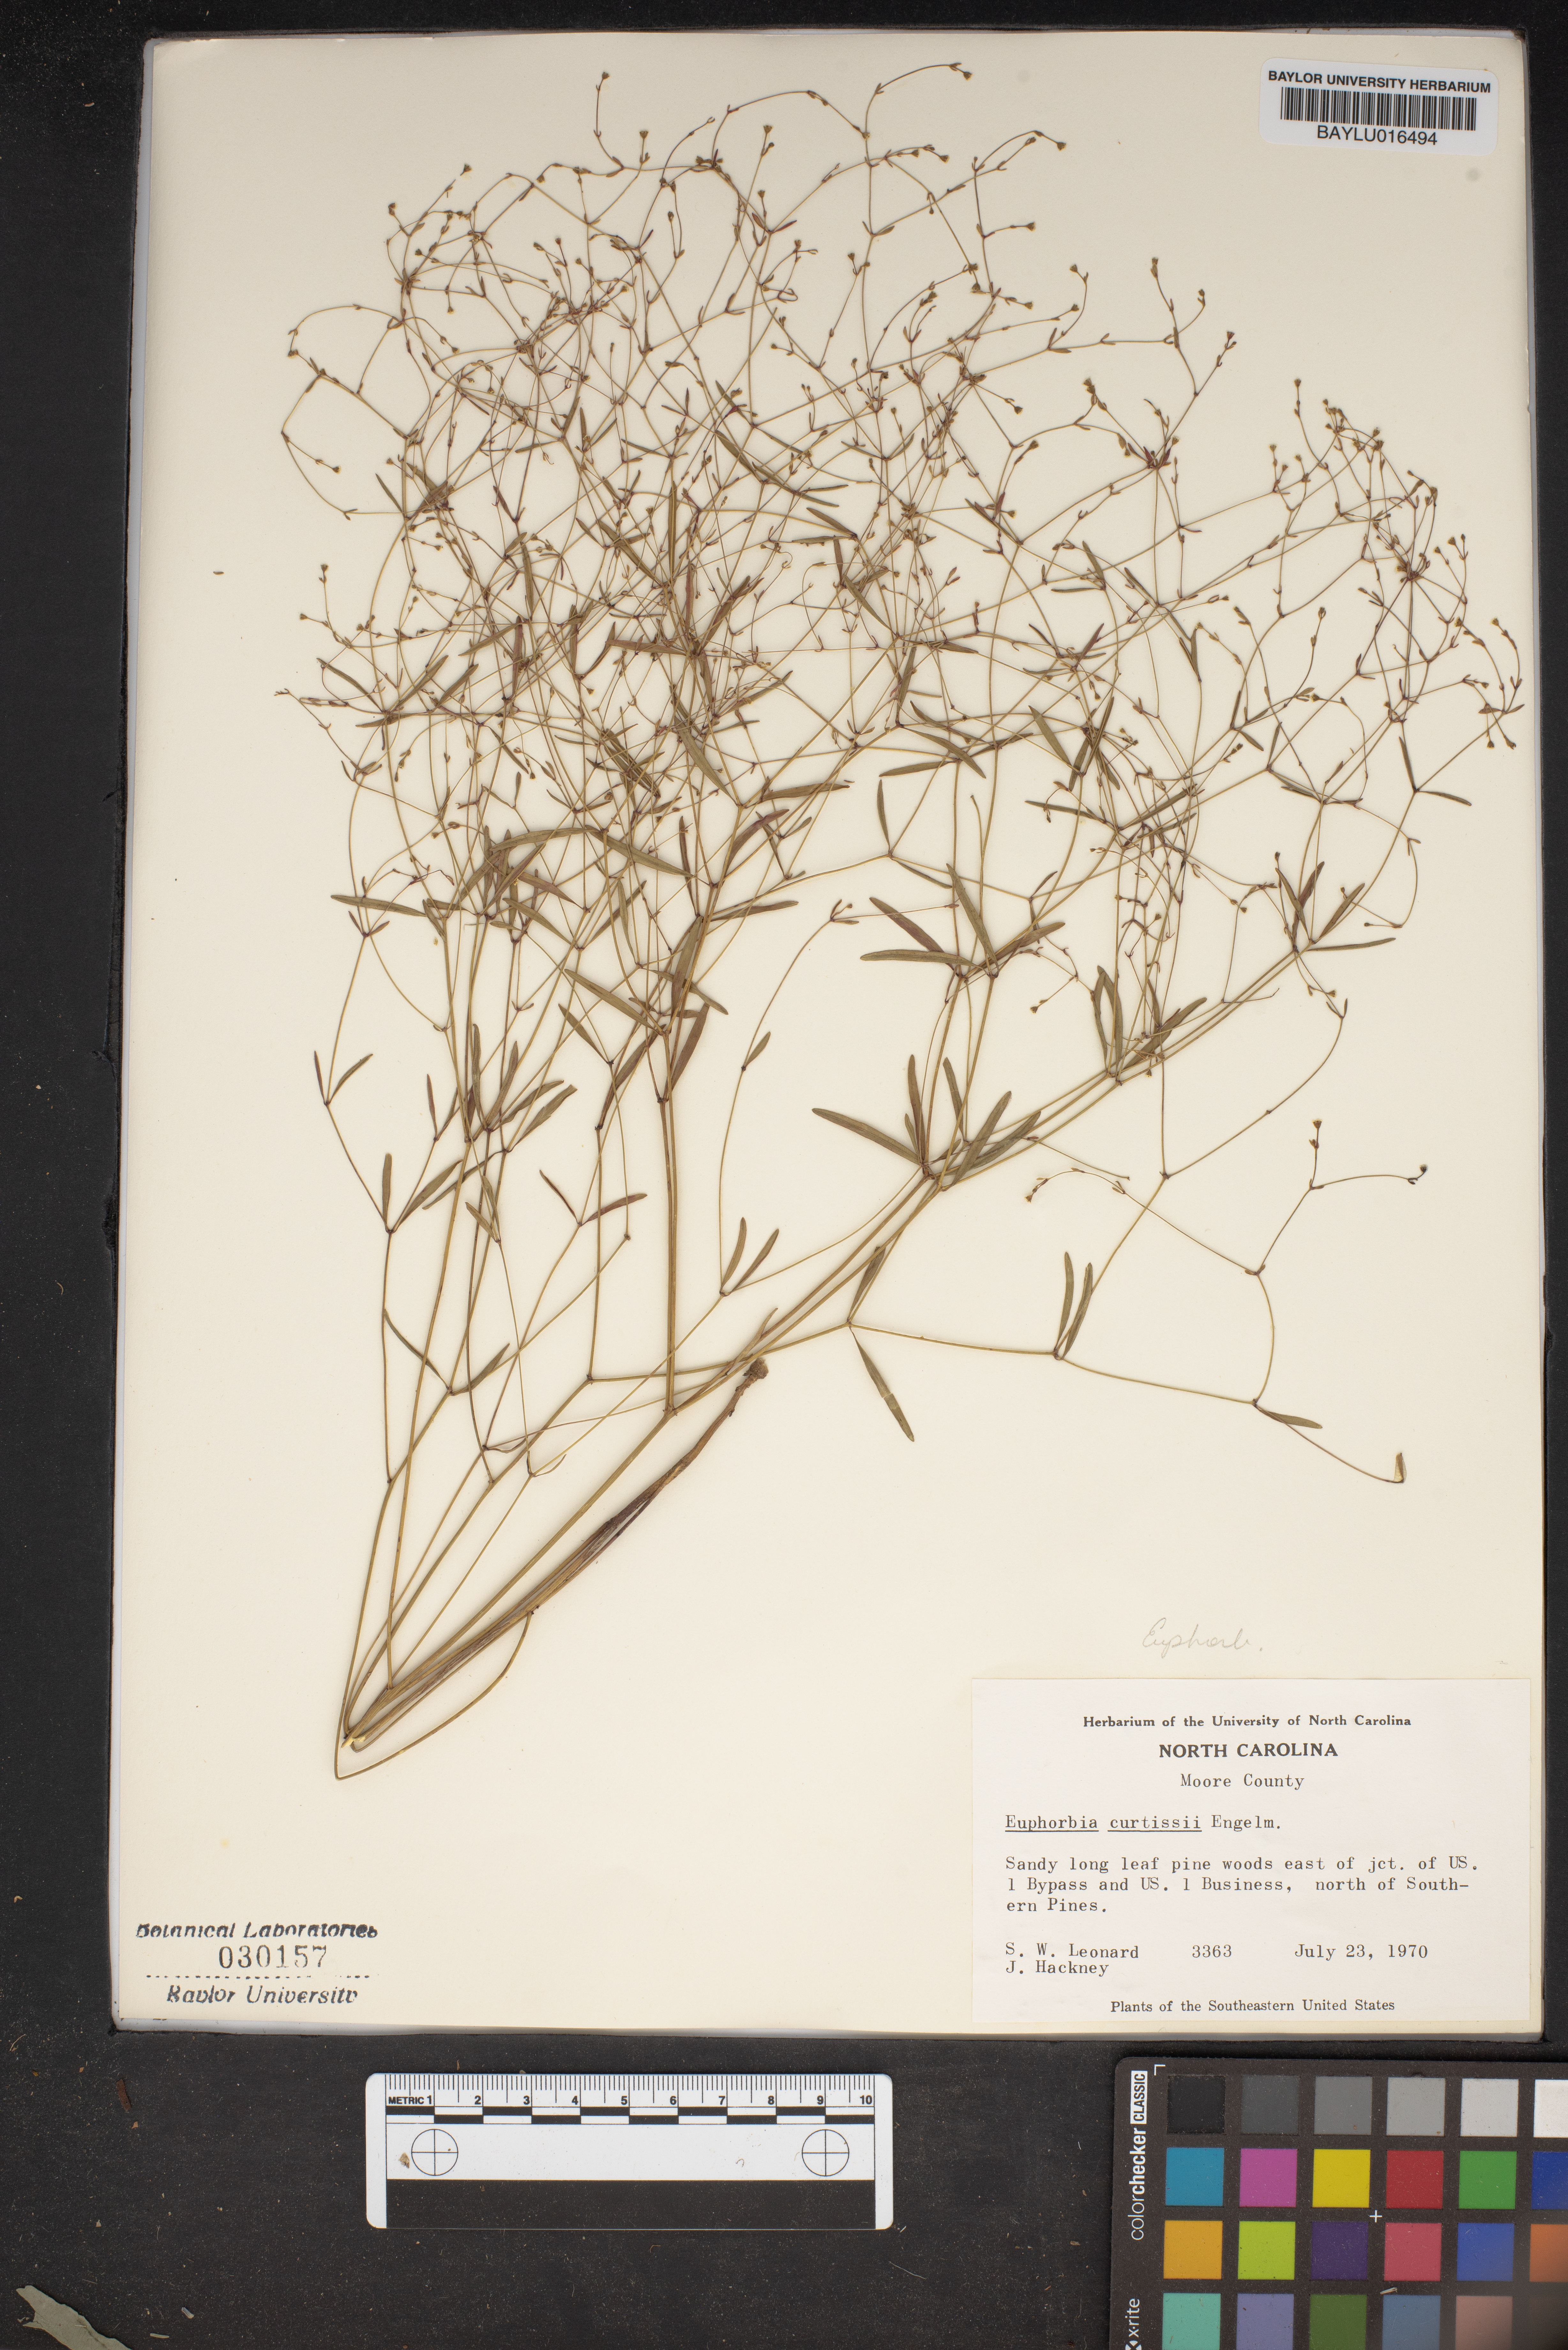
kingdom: Plantae
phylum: Tracheophyta
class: Magnoliopsida
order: Malpighiales
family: Euphorbiaceae
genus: Euphorbia
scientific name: Euphorbia curtisii
